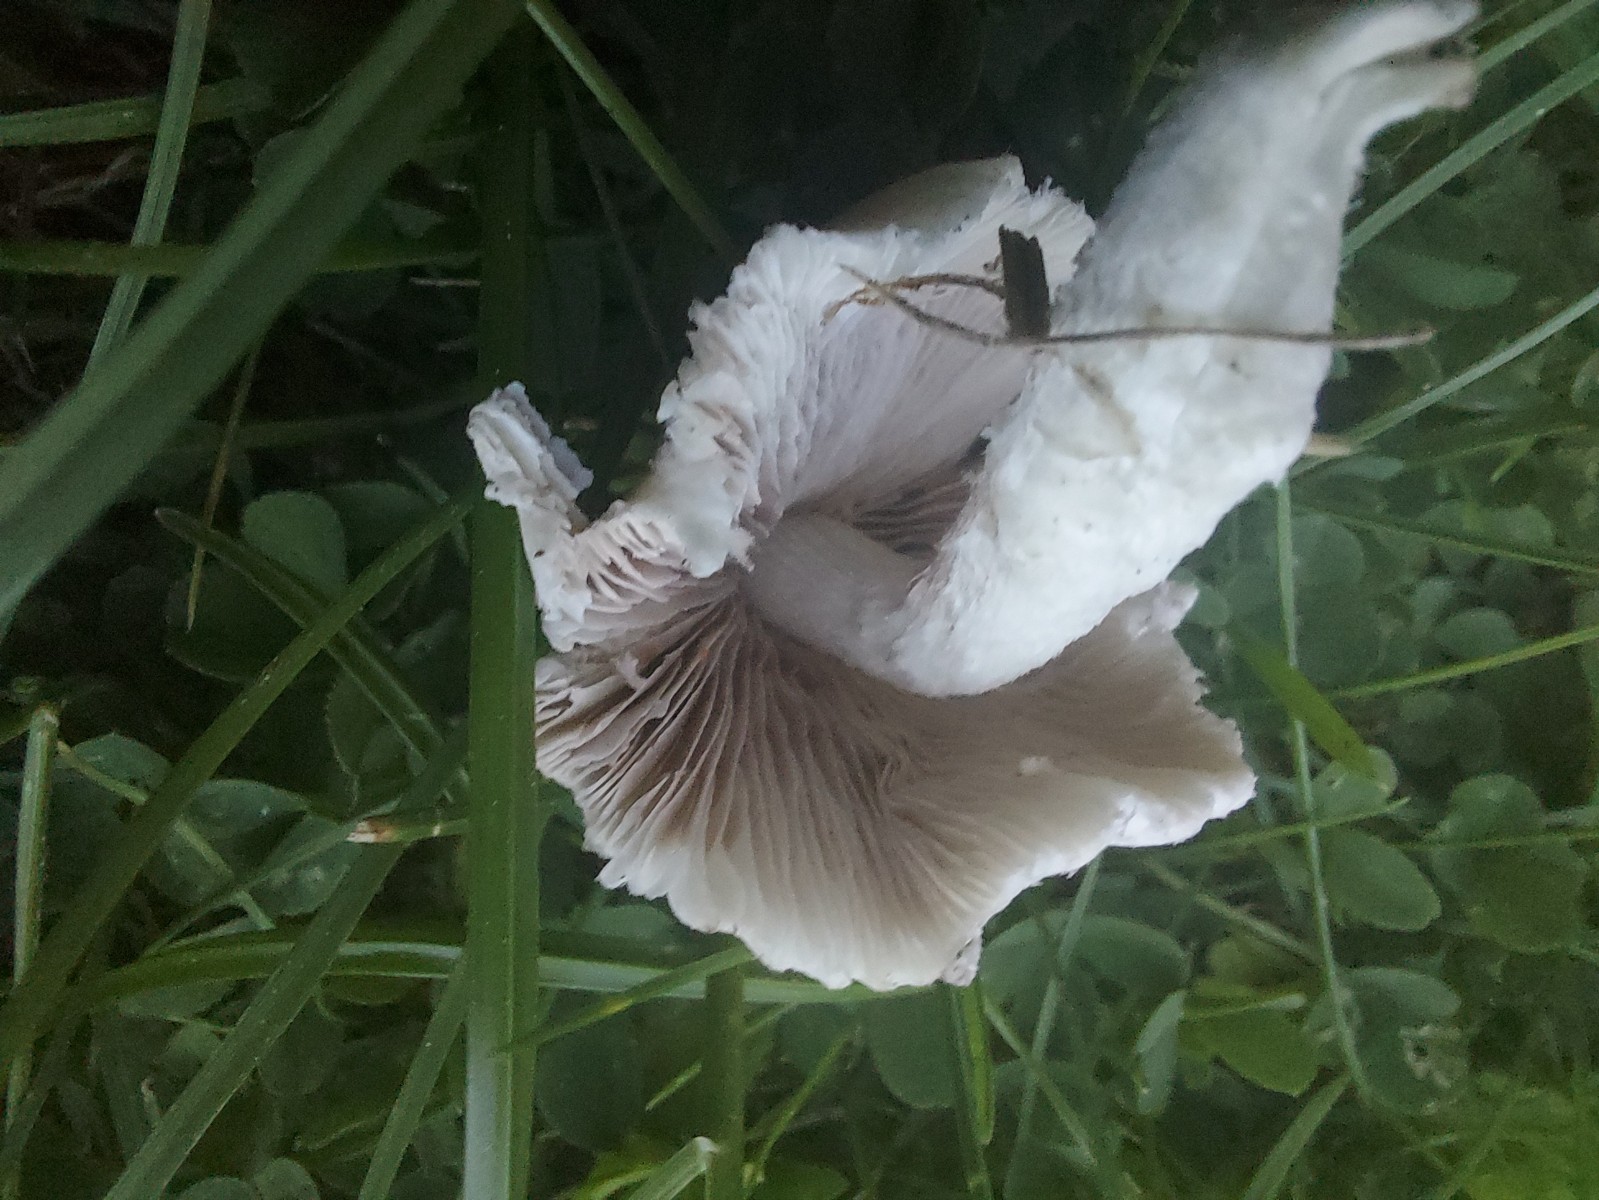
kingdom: Fungi
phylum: Basidiomycota
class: Agaricomycetes
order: Agaricales
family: Psathyrellaceae
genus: Candolleomyces
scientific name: Candolleomyces candolleanus
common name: Candolles mørkhat
